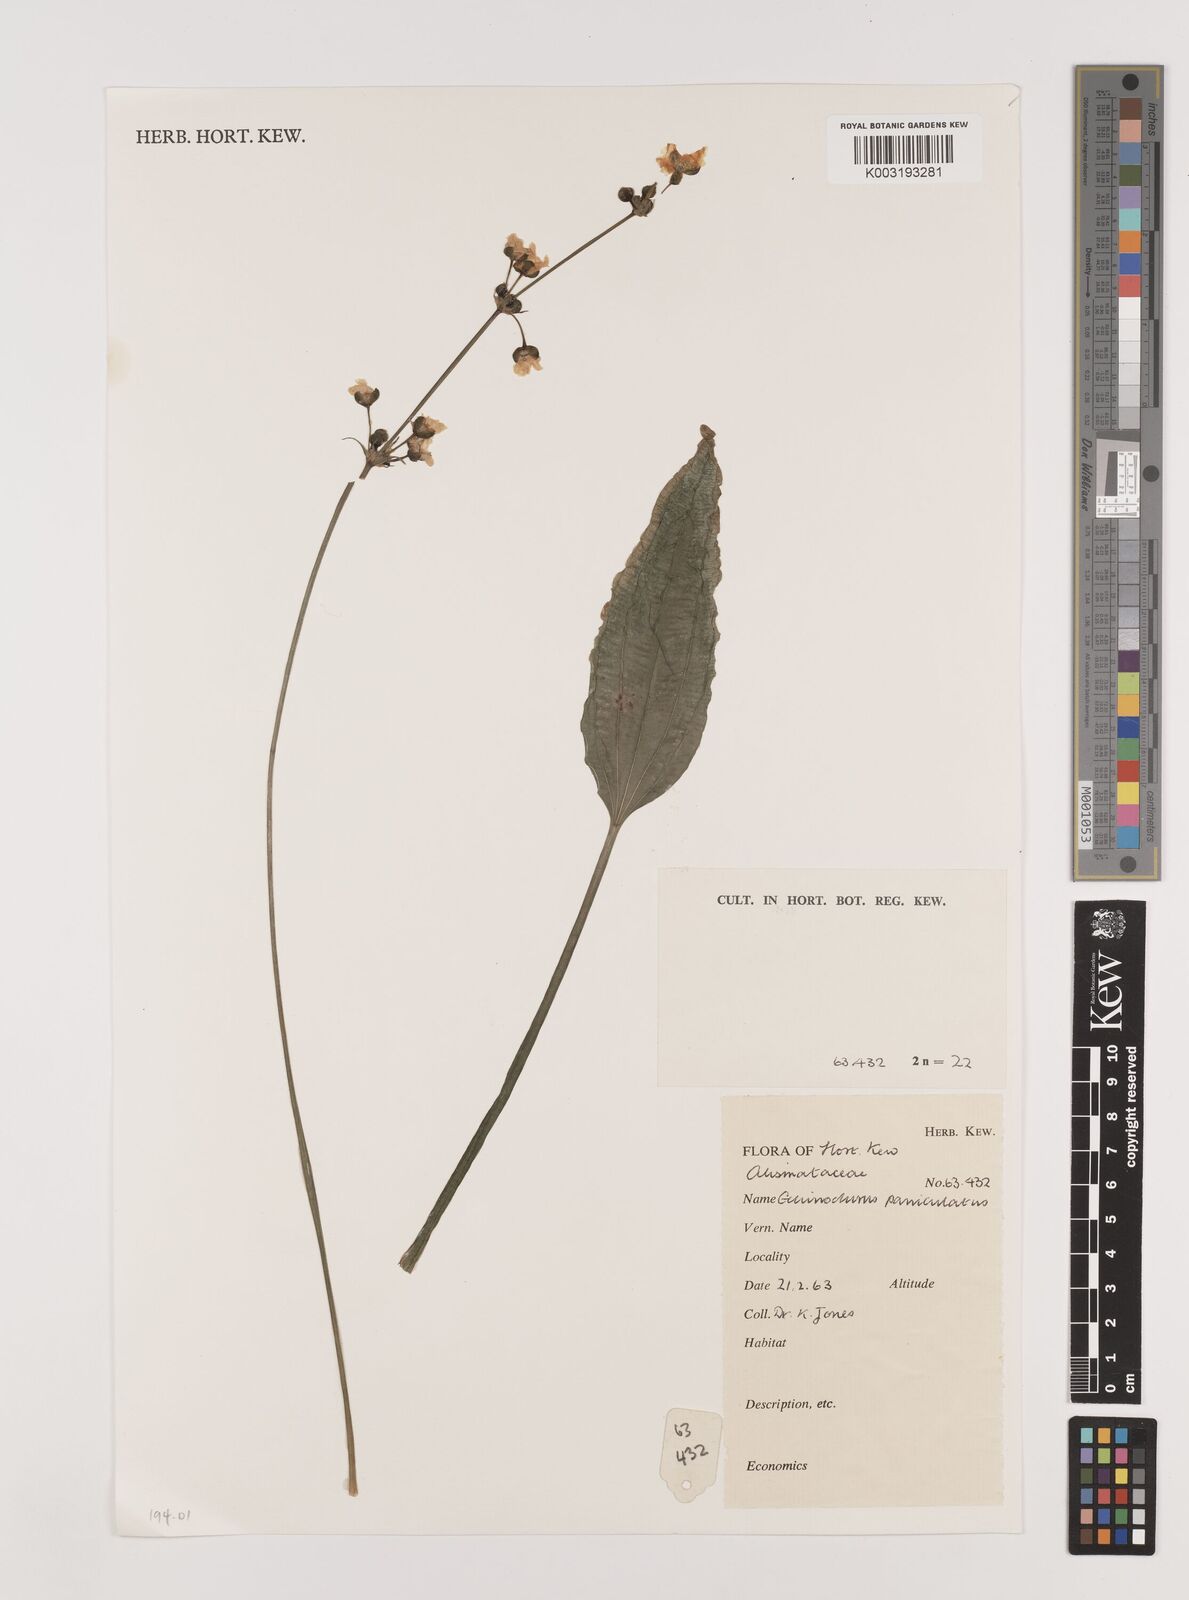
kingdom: Plantae
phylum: Tracheophyta
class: Liliopsida
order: Alismatales
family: Alismataceae
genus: Aquarius
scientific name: Aquarius paniculatus
